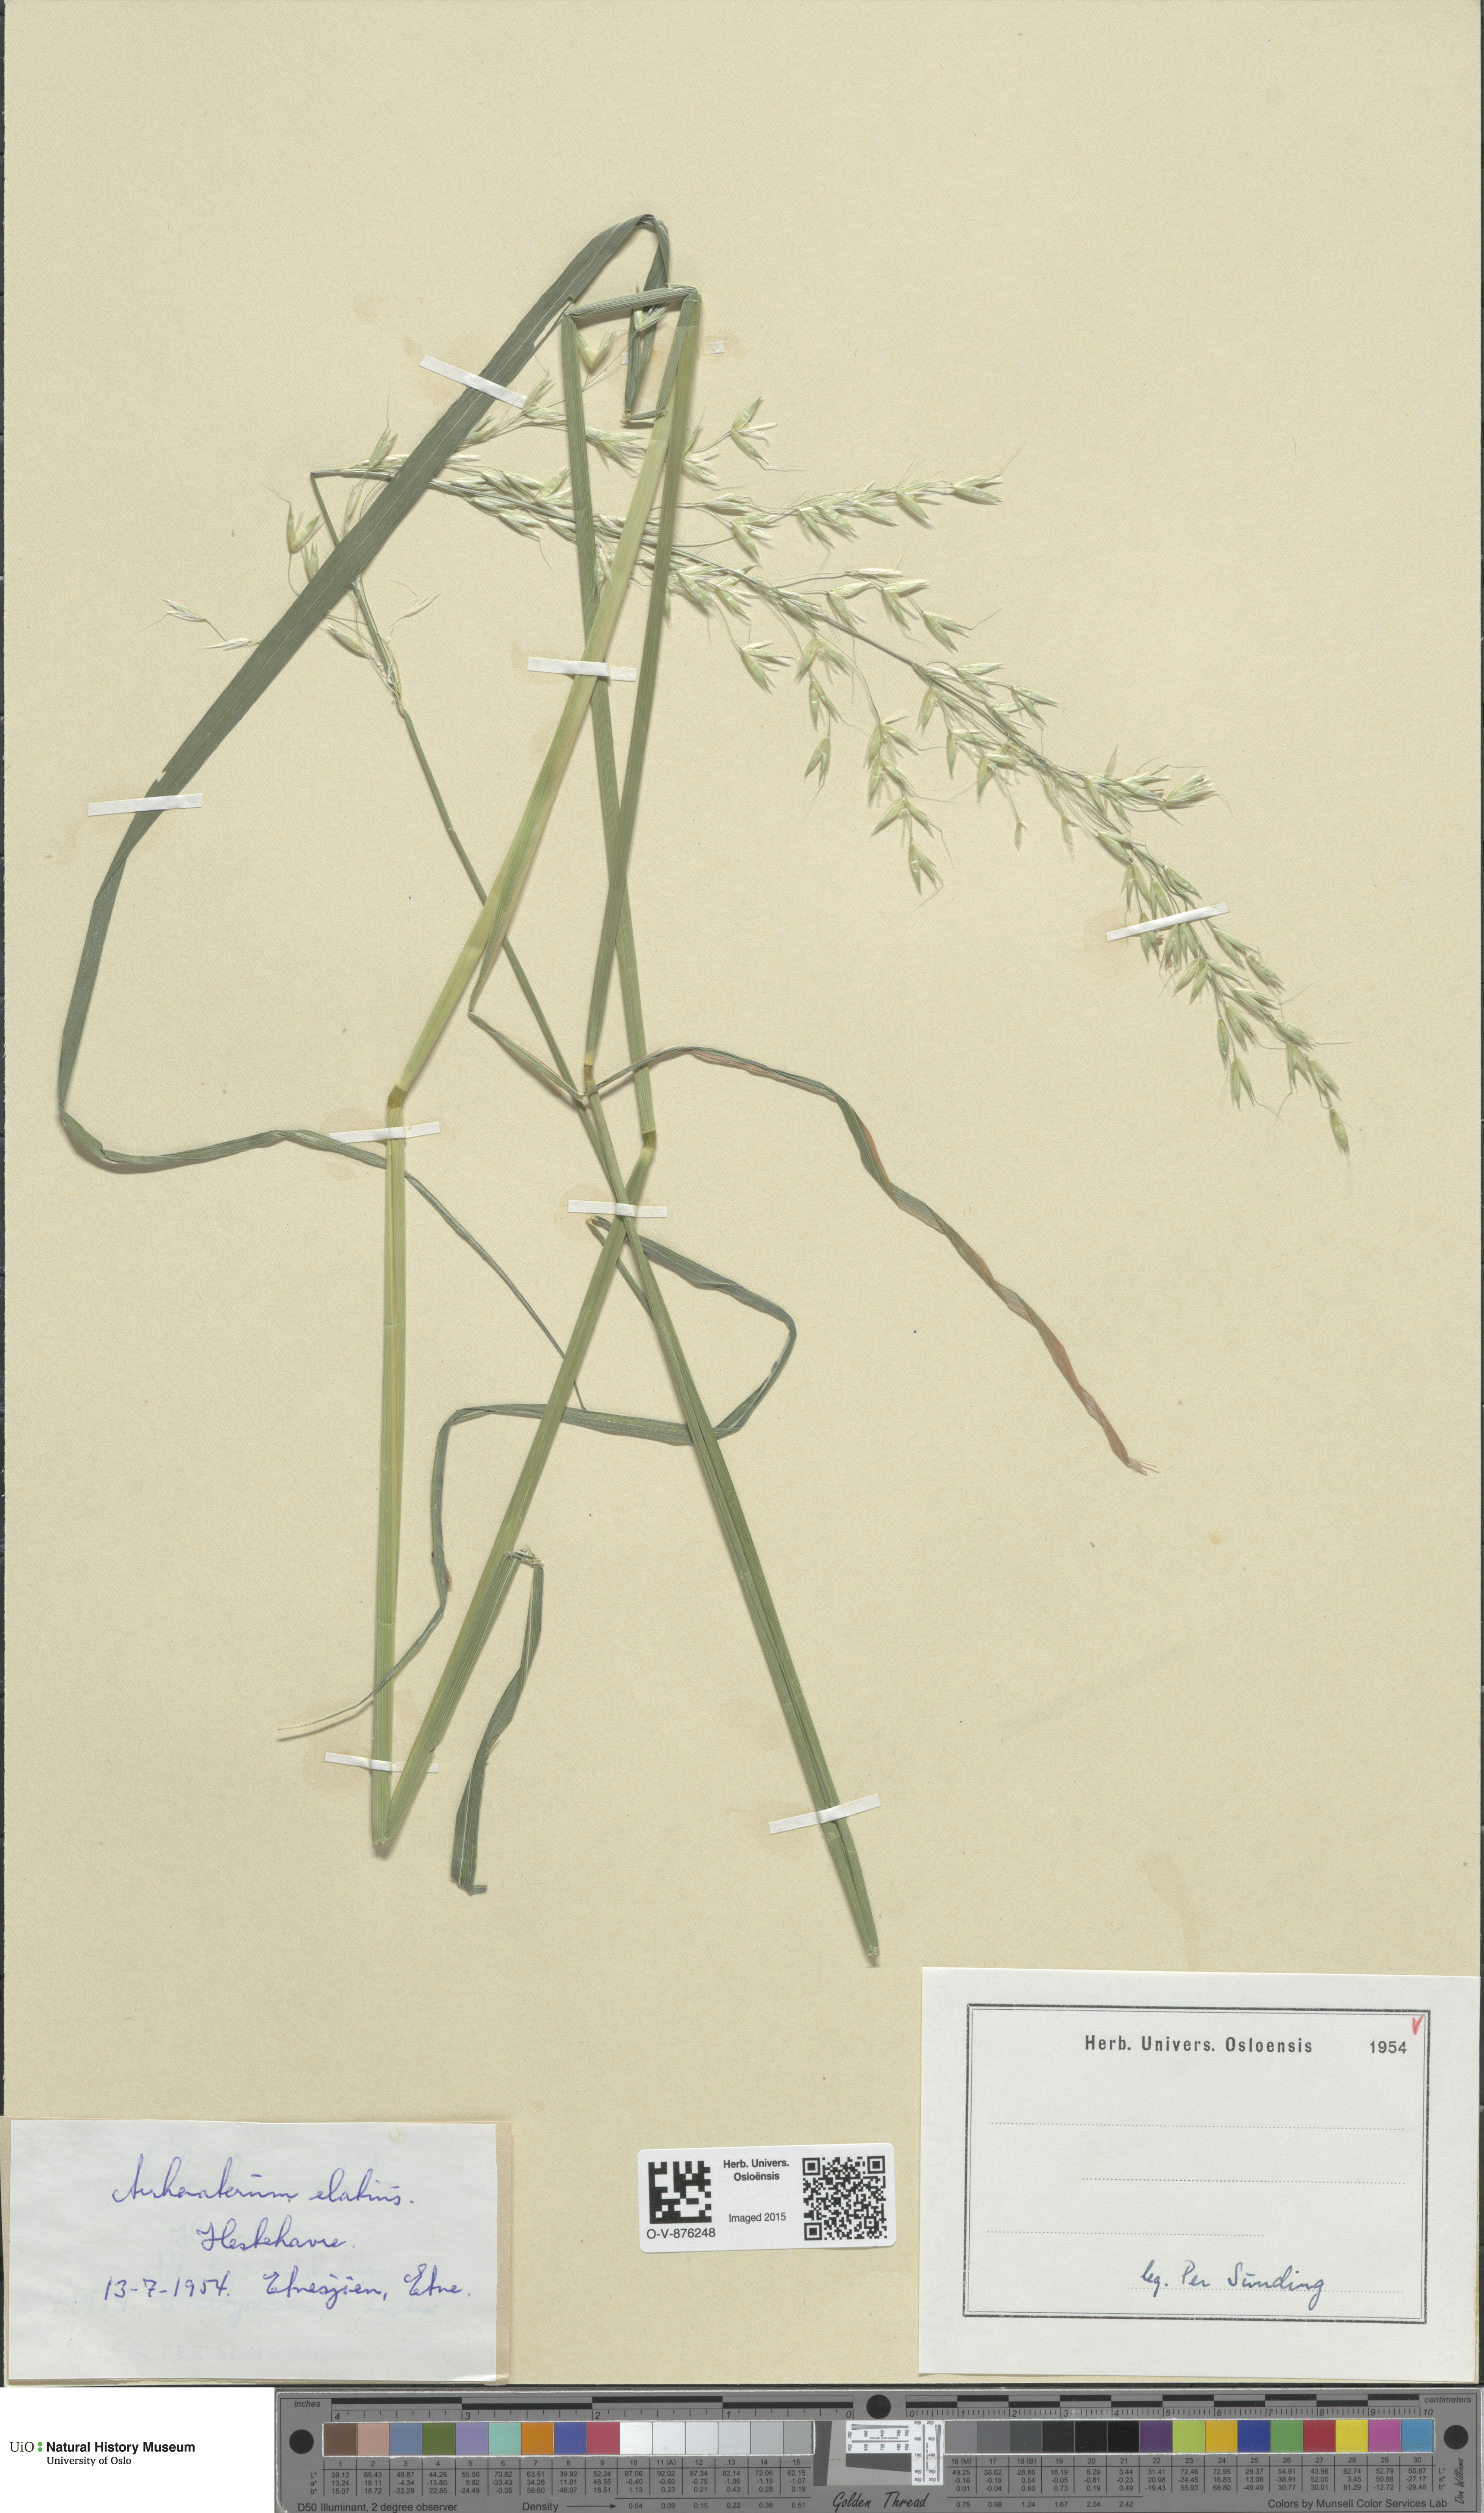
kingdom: Plantae
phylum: Tracheophyta
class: Liliopsida
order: Poales
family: Poaceae
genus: Arrhenatherum
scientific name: Arrhenatherum elatius
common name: Tall oatgrass
